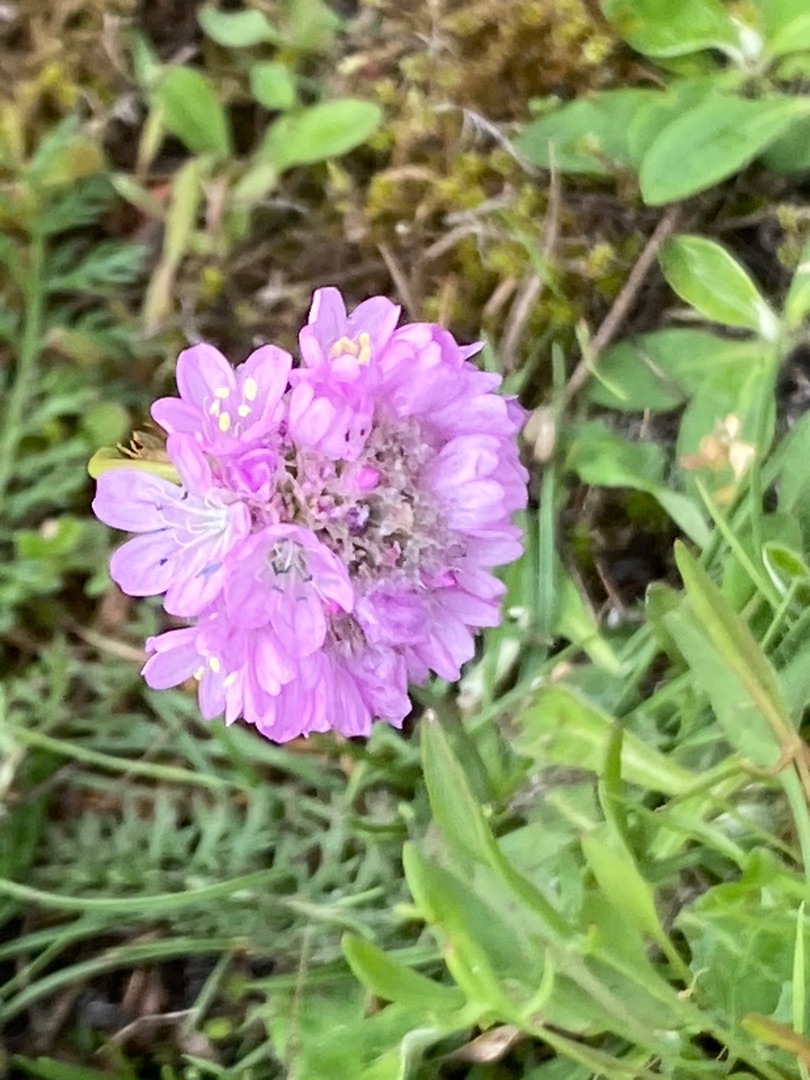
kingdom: Plantae
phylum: Tracheophyta
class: Magnoliopsida
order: Caryophyllales
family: Plumbaginaceae
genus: Armeria
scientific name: Armeria maritima
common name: Engelskgræs
